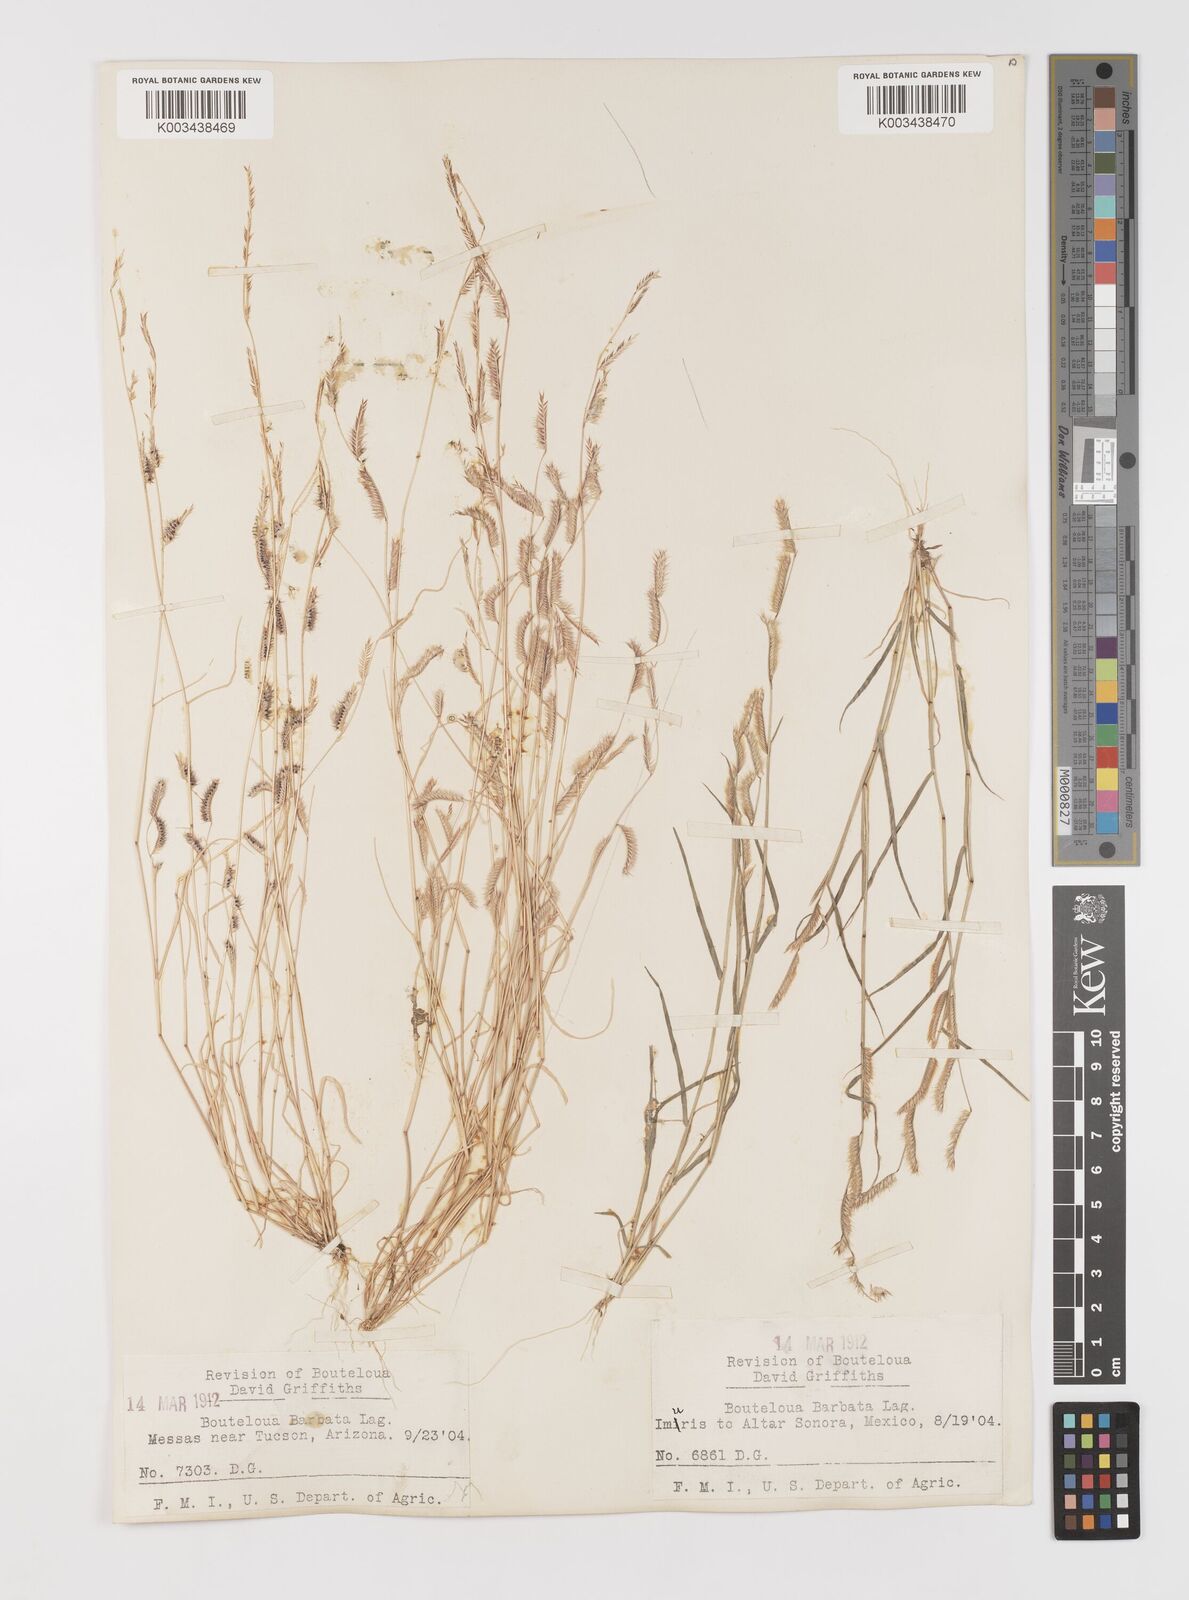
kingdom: Plantae
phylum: Tracheophyta
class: Liliopsida
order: Poales
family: Poaceae
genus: Bouteloua
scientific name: Bouteloua
